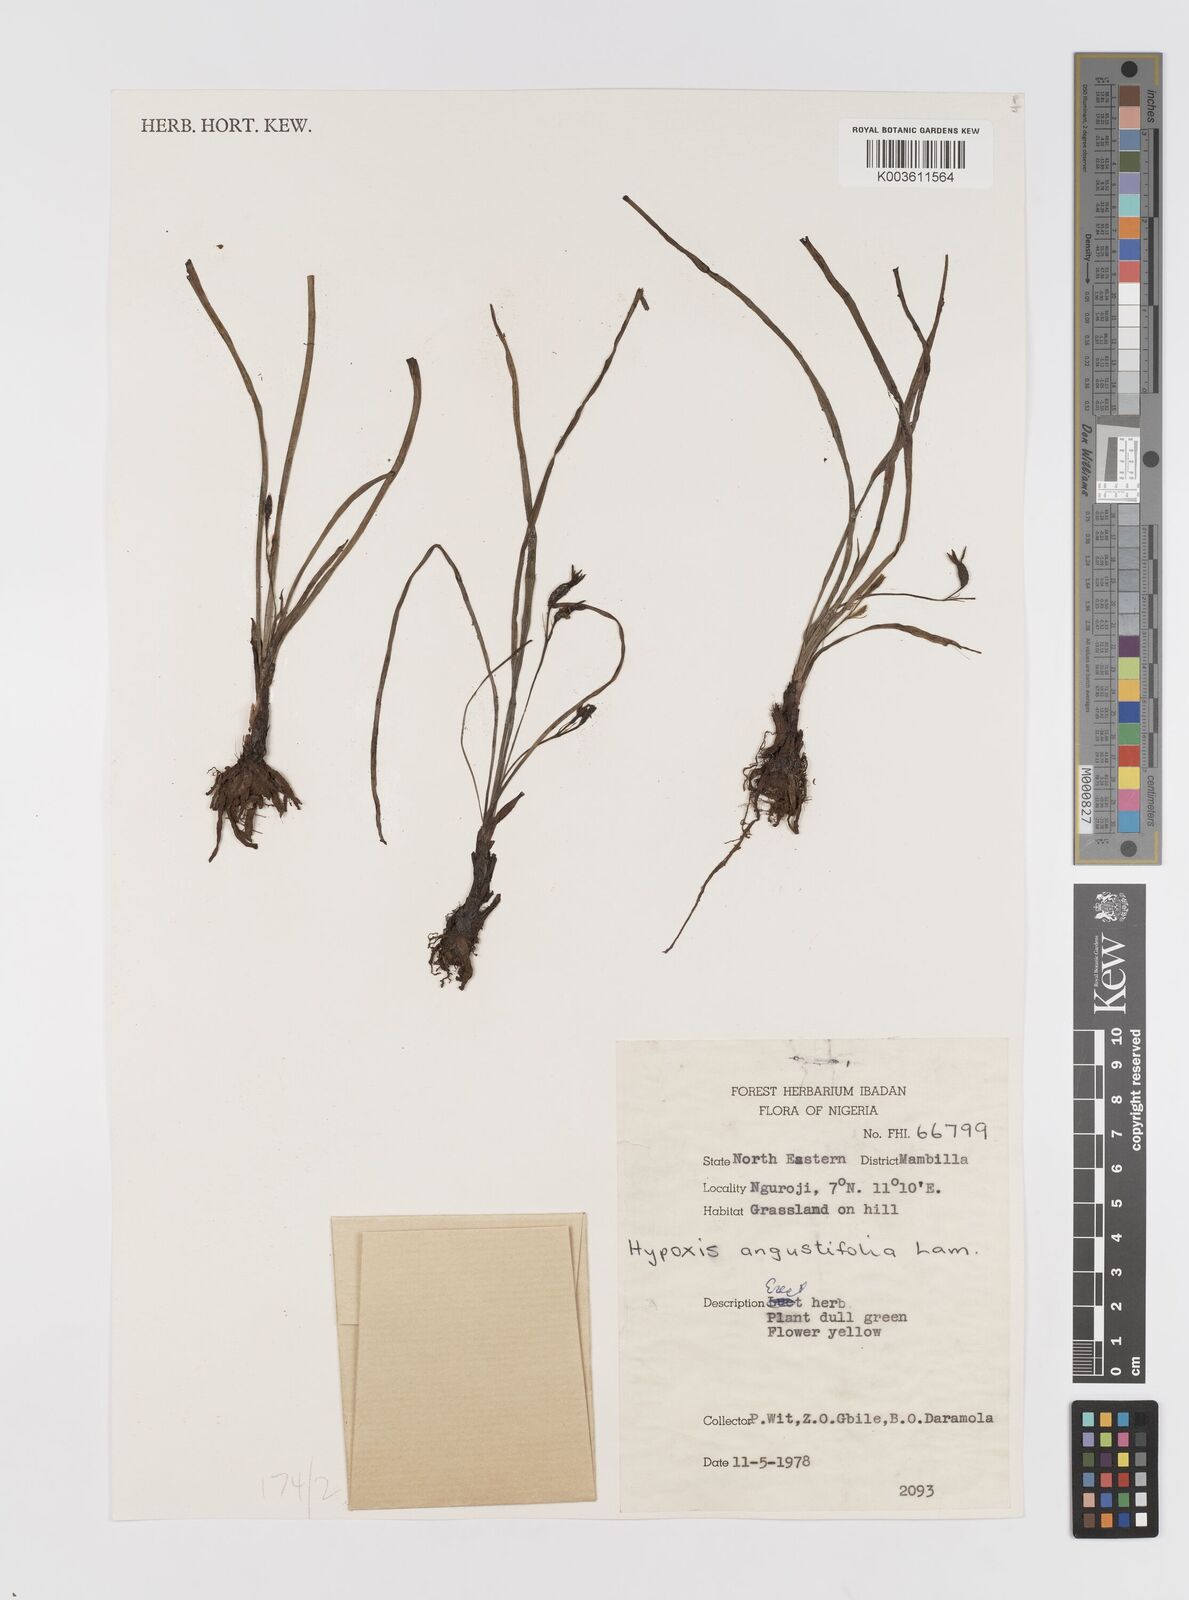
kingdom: Plantae
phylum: Tracheophyta
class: Liliopsida
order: Asparagales
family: Hypoxidaceae
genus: Hypoxis
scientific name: Hypoxis angustifolia
